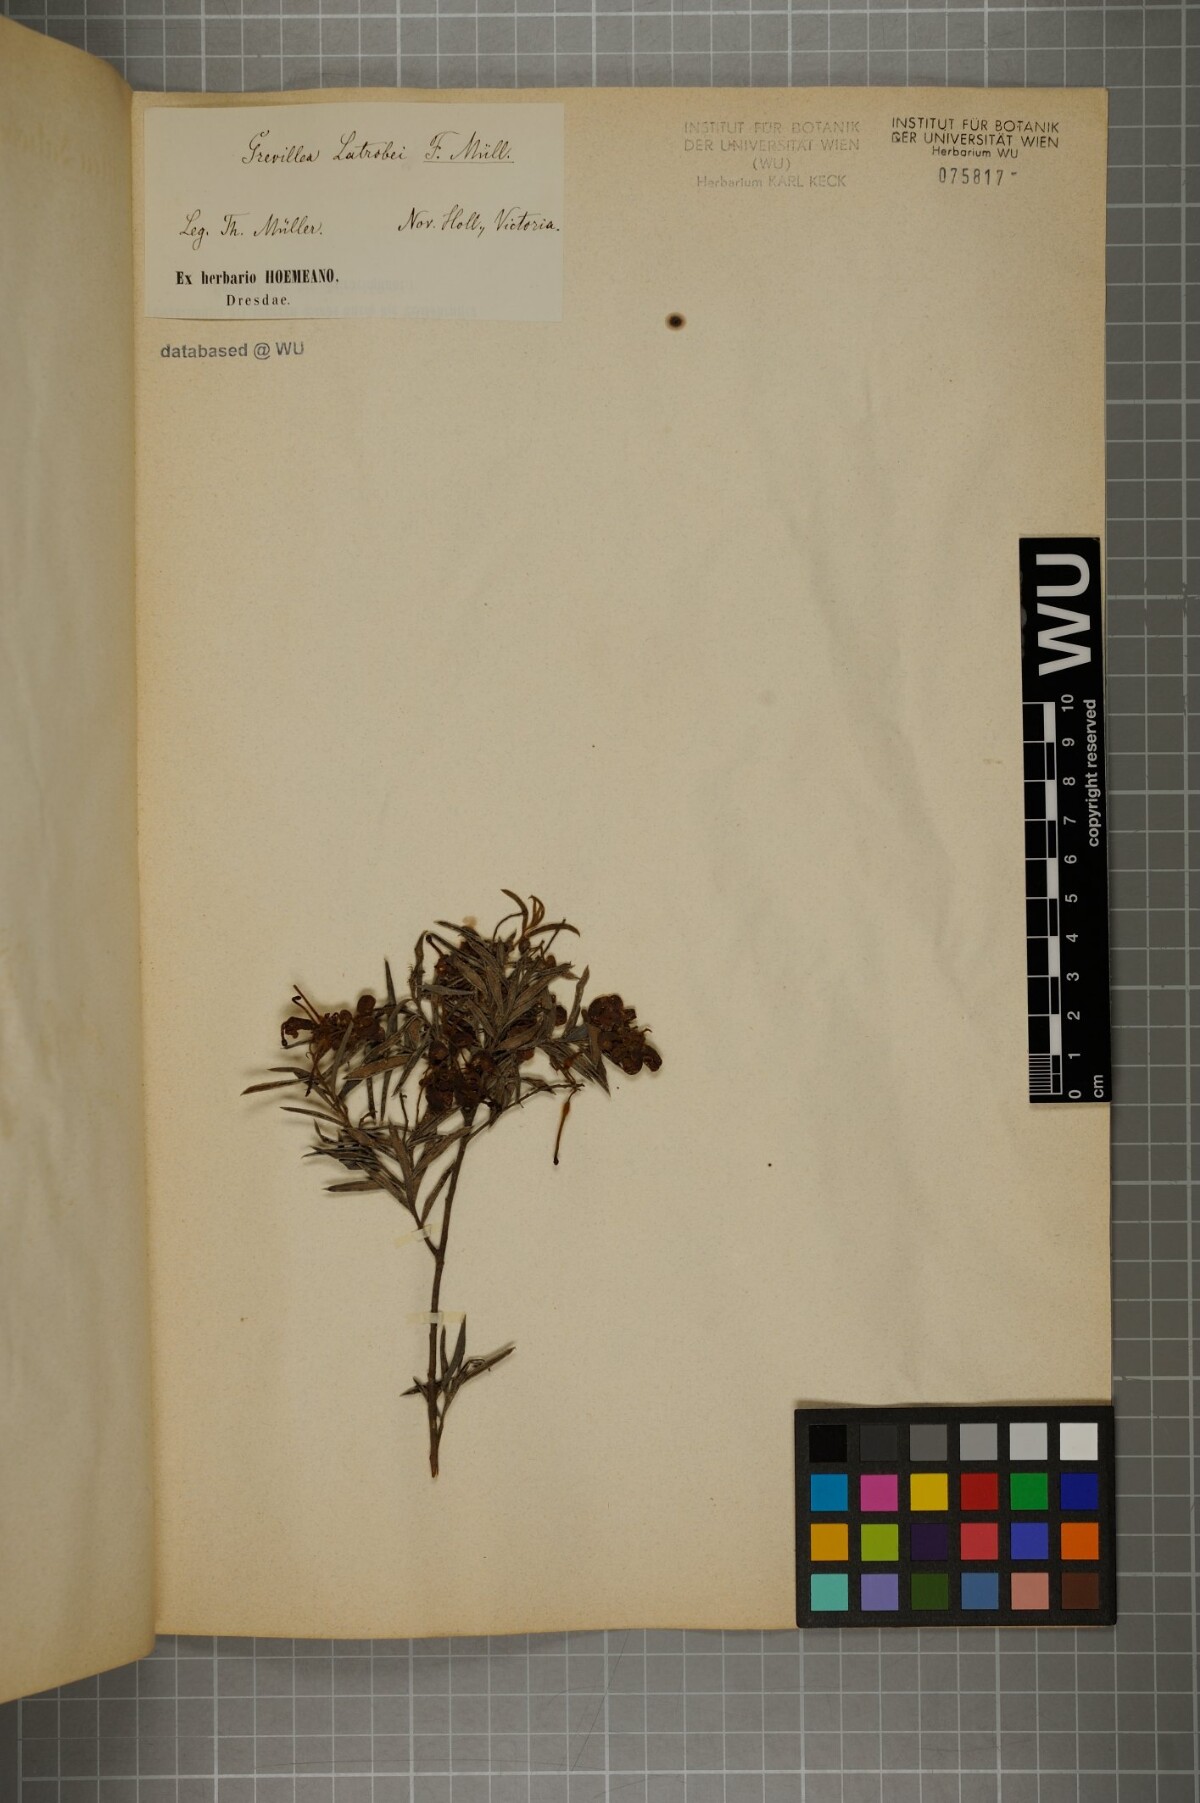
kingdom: Plantae
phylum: Tracheophyta
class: Magnoliopsida
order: Proteales
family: Proteaceae
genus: Grevillea
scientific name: Grevillea rosmarinifolia
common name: Rosemary grevillea
